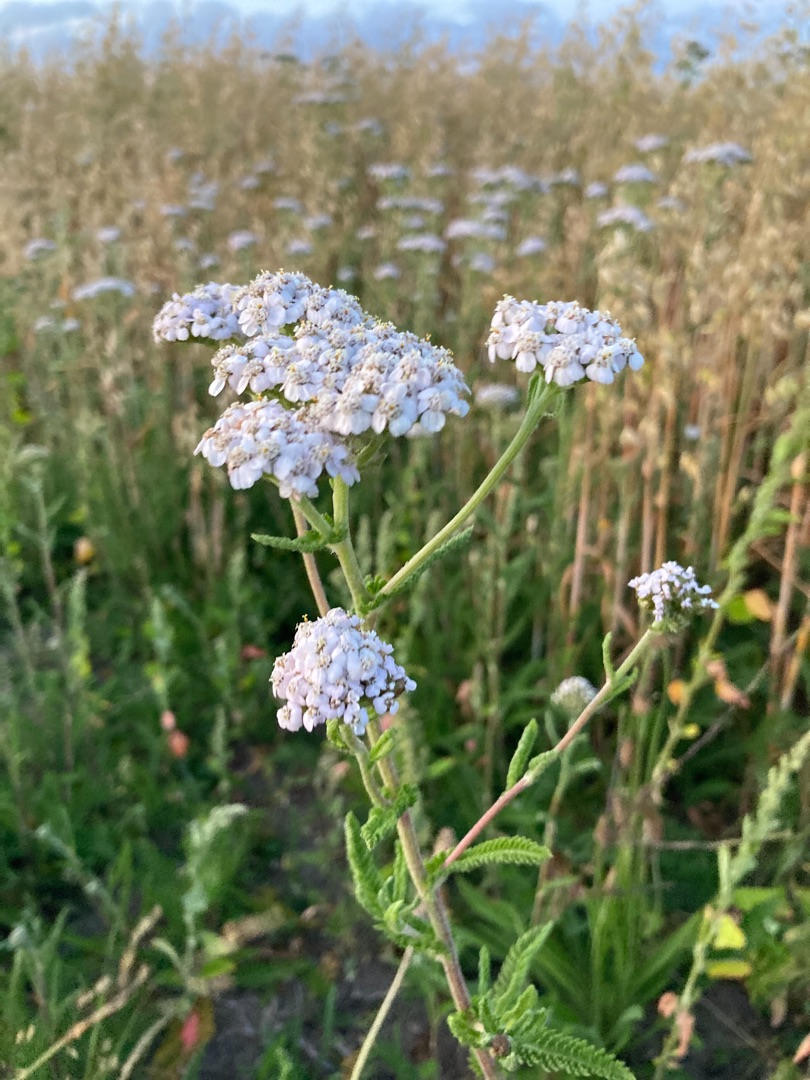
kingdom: Plantae
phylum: Tracheophyta
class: Magnoliopsida
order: Asterales
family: Asteraceae
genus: Achillea
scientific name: Achillea millefolium
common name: Almindelig røllike
